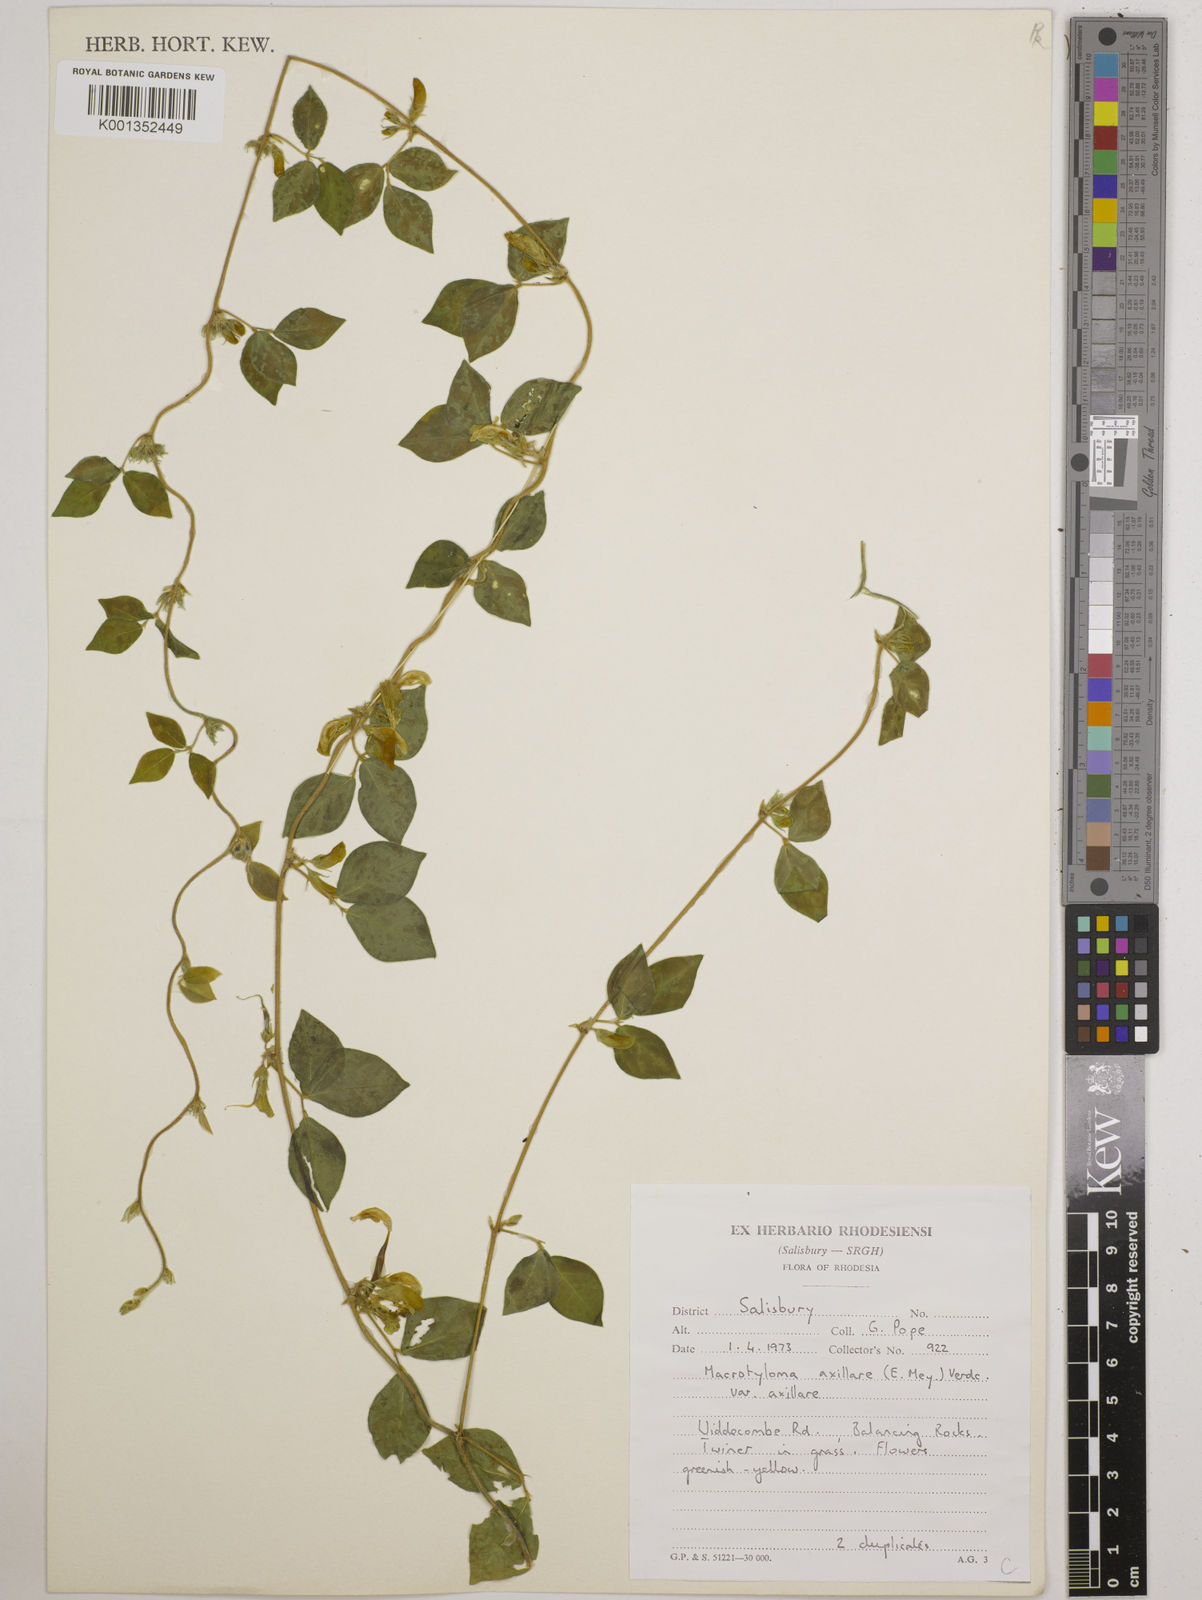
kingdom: Plantae
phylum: Tracheophyta
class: Magnoliopsida
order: Fabales
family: Fabaceae
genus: Macrotyloma
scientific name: Macrotyloma axillare
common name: Perennial horsegram
